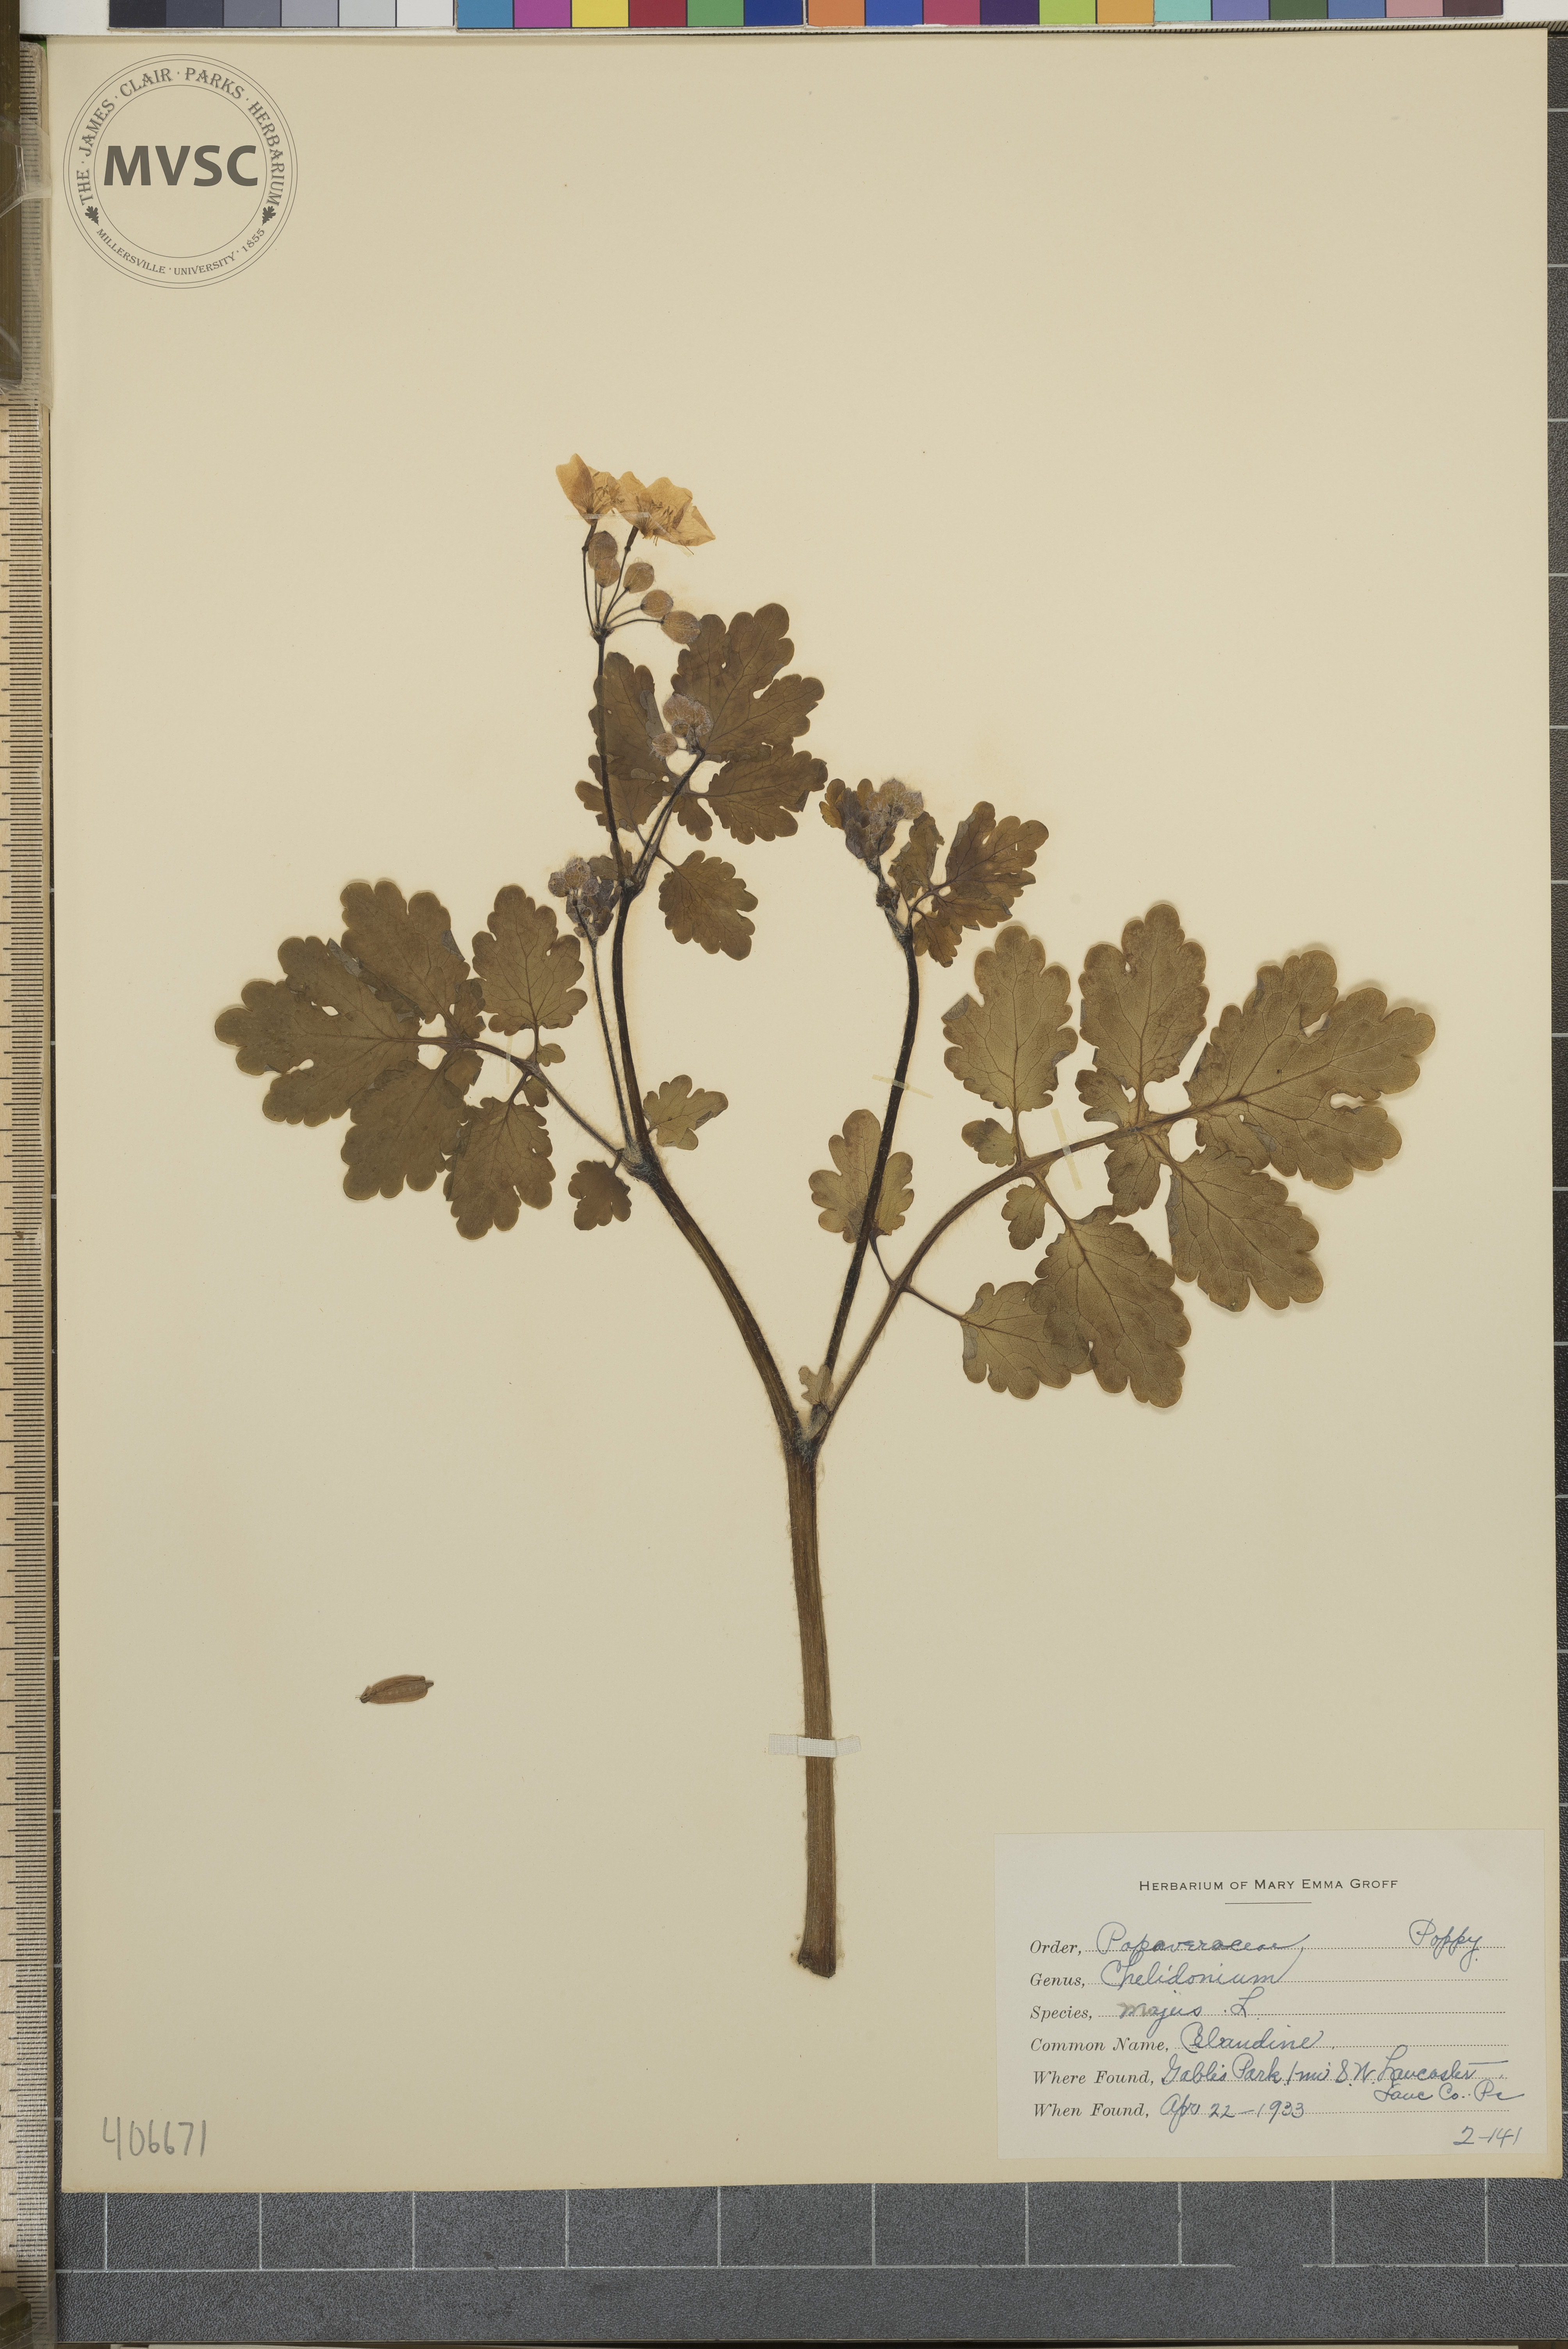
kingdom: Plantae
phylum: Tracheophyta
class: Magnoliopsida
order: Ranunculales
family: Papaveraceae
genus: Chelidonium
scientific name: Chelidonium majus
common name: Celandine
